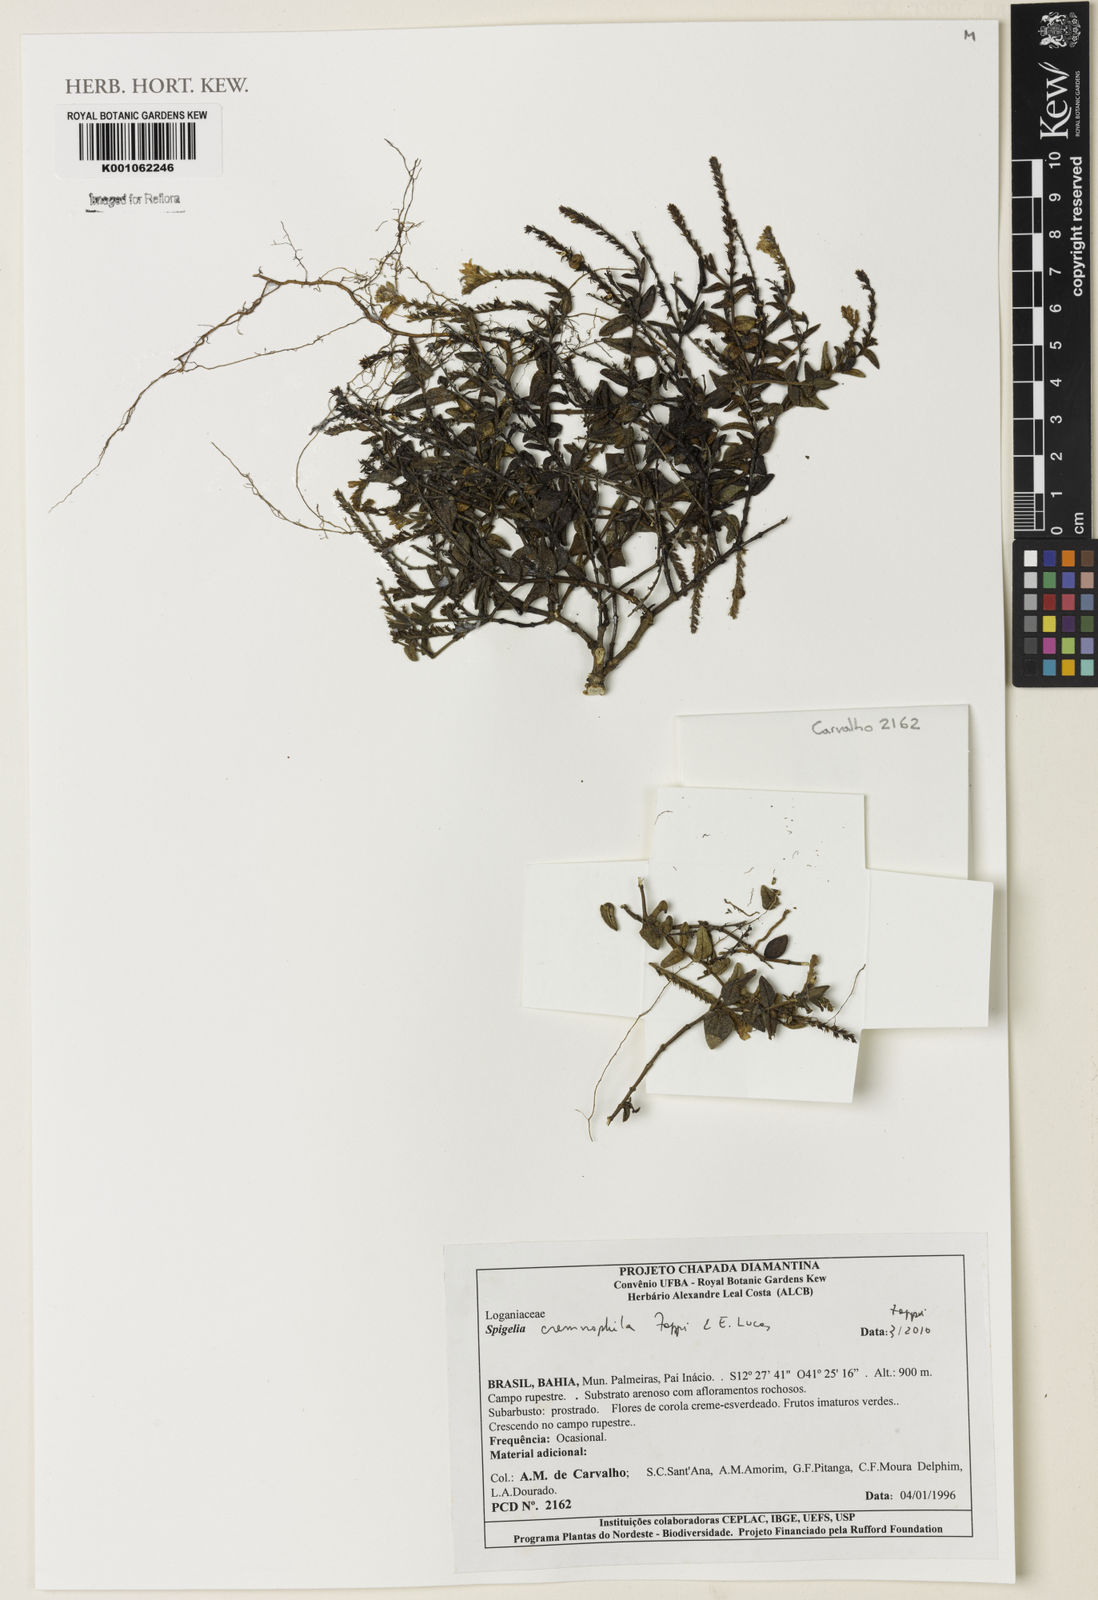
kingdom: Plantae
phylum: Tracheophyta
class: Magnoliopsida
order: Gentianales
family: Loganiaceae
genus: Spigelia
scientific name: Spigelia cremnophila
